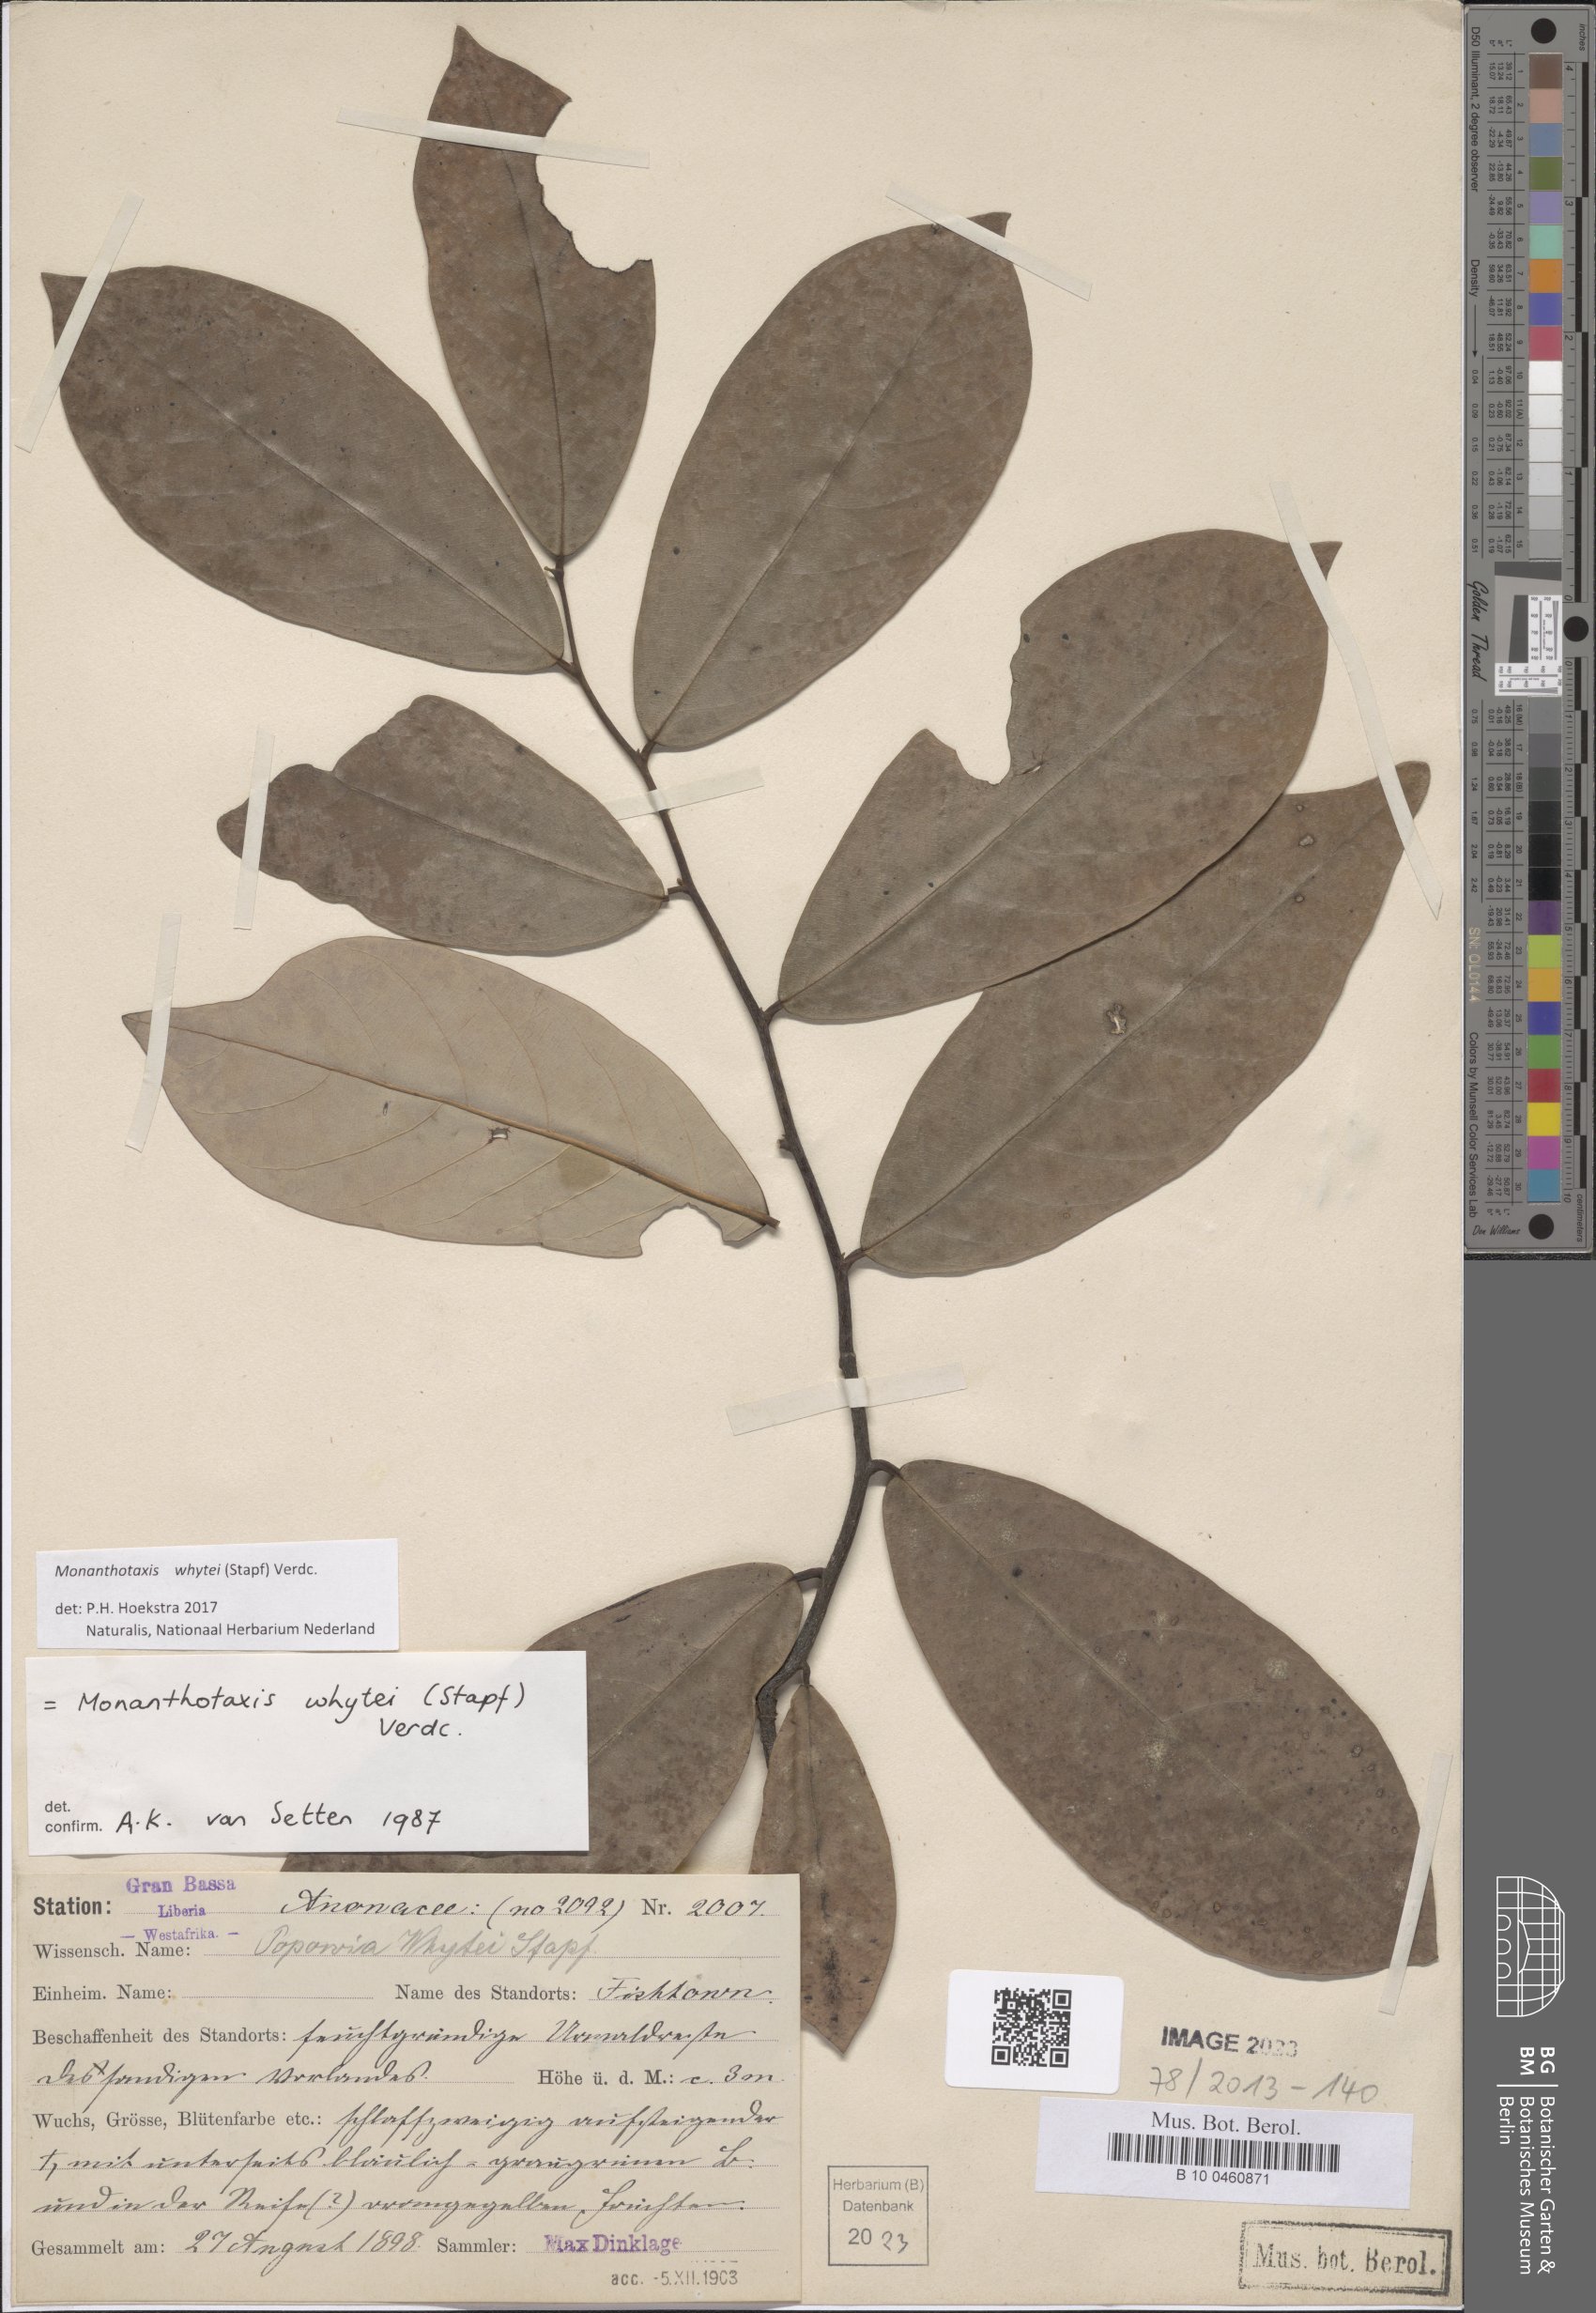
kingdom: Plantae
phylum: Tracheophyta
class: Magnoliopsida
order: Magnoliales
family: Annonaceae
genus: Monanthotaxis
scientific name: Monanthotaxis whytei
